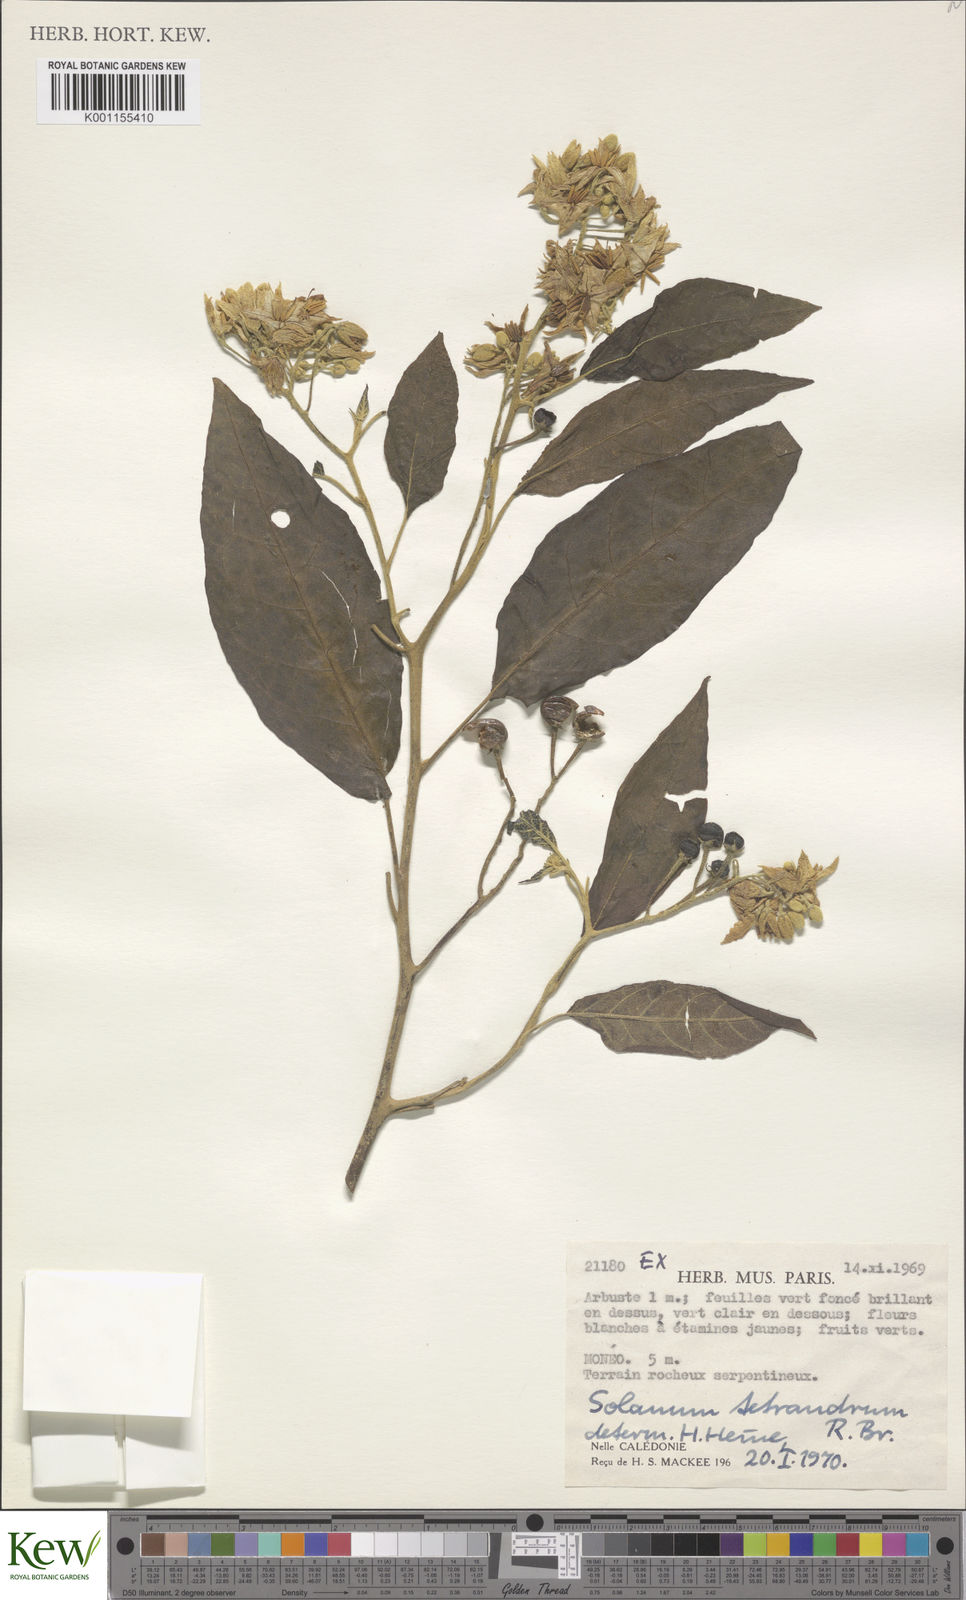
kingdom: Plantae
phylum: Tracheophyta
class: Magnoliopsida
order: Solanales
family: Solanaceae
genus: Solanum
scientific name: Solanum tetrandrum
